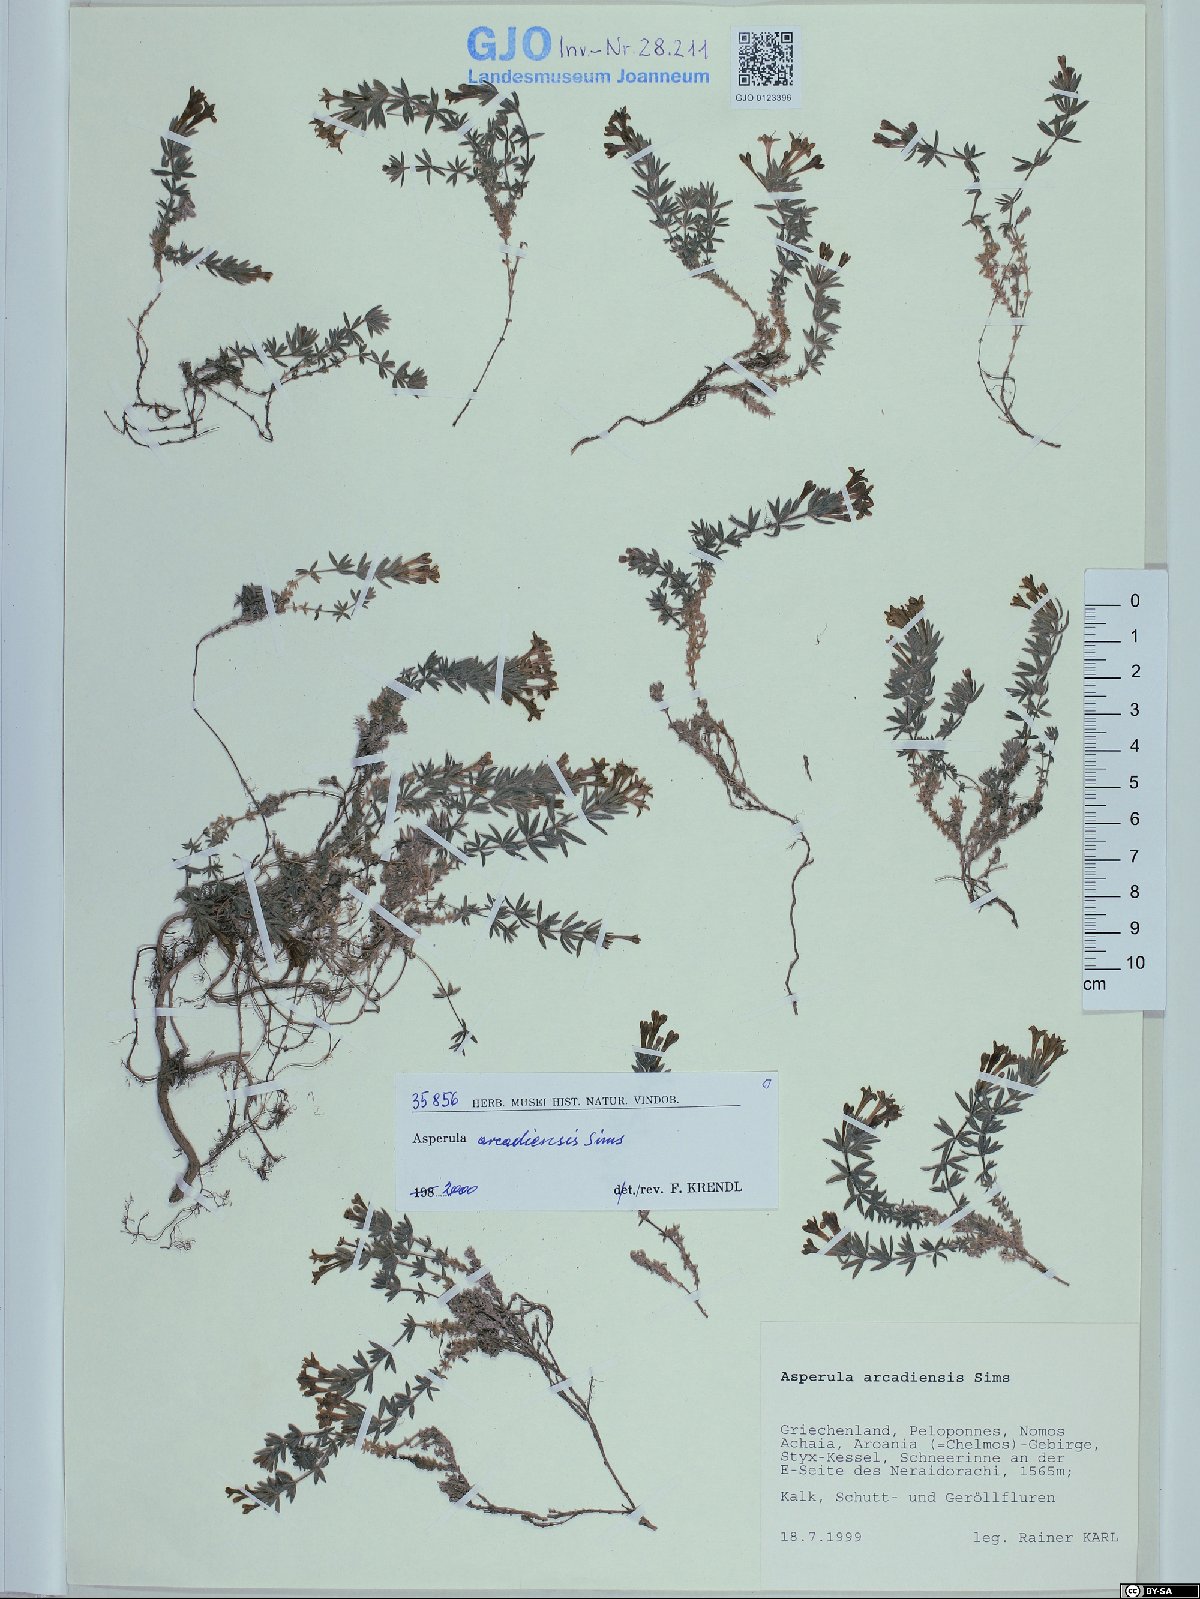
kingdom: Plantae
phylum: Tracheophyta
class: Magnoliopsida
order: Gentianales
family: Rubiaceae
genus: Hexaphylla
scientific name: Hexaphylla arcadiensis
